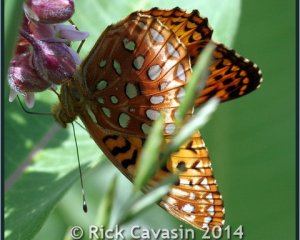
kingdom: Animalia
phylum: Arthropoda
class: Insecta
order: Lepidoptera
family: Nymphalidae
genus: Speyeria
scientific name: Speyeria aphrodite
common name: Aphrodite Fritillary
